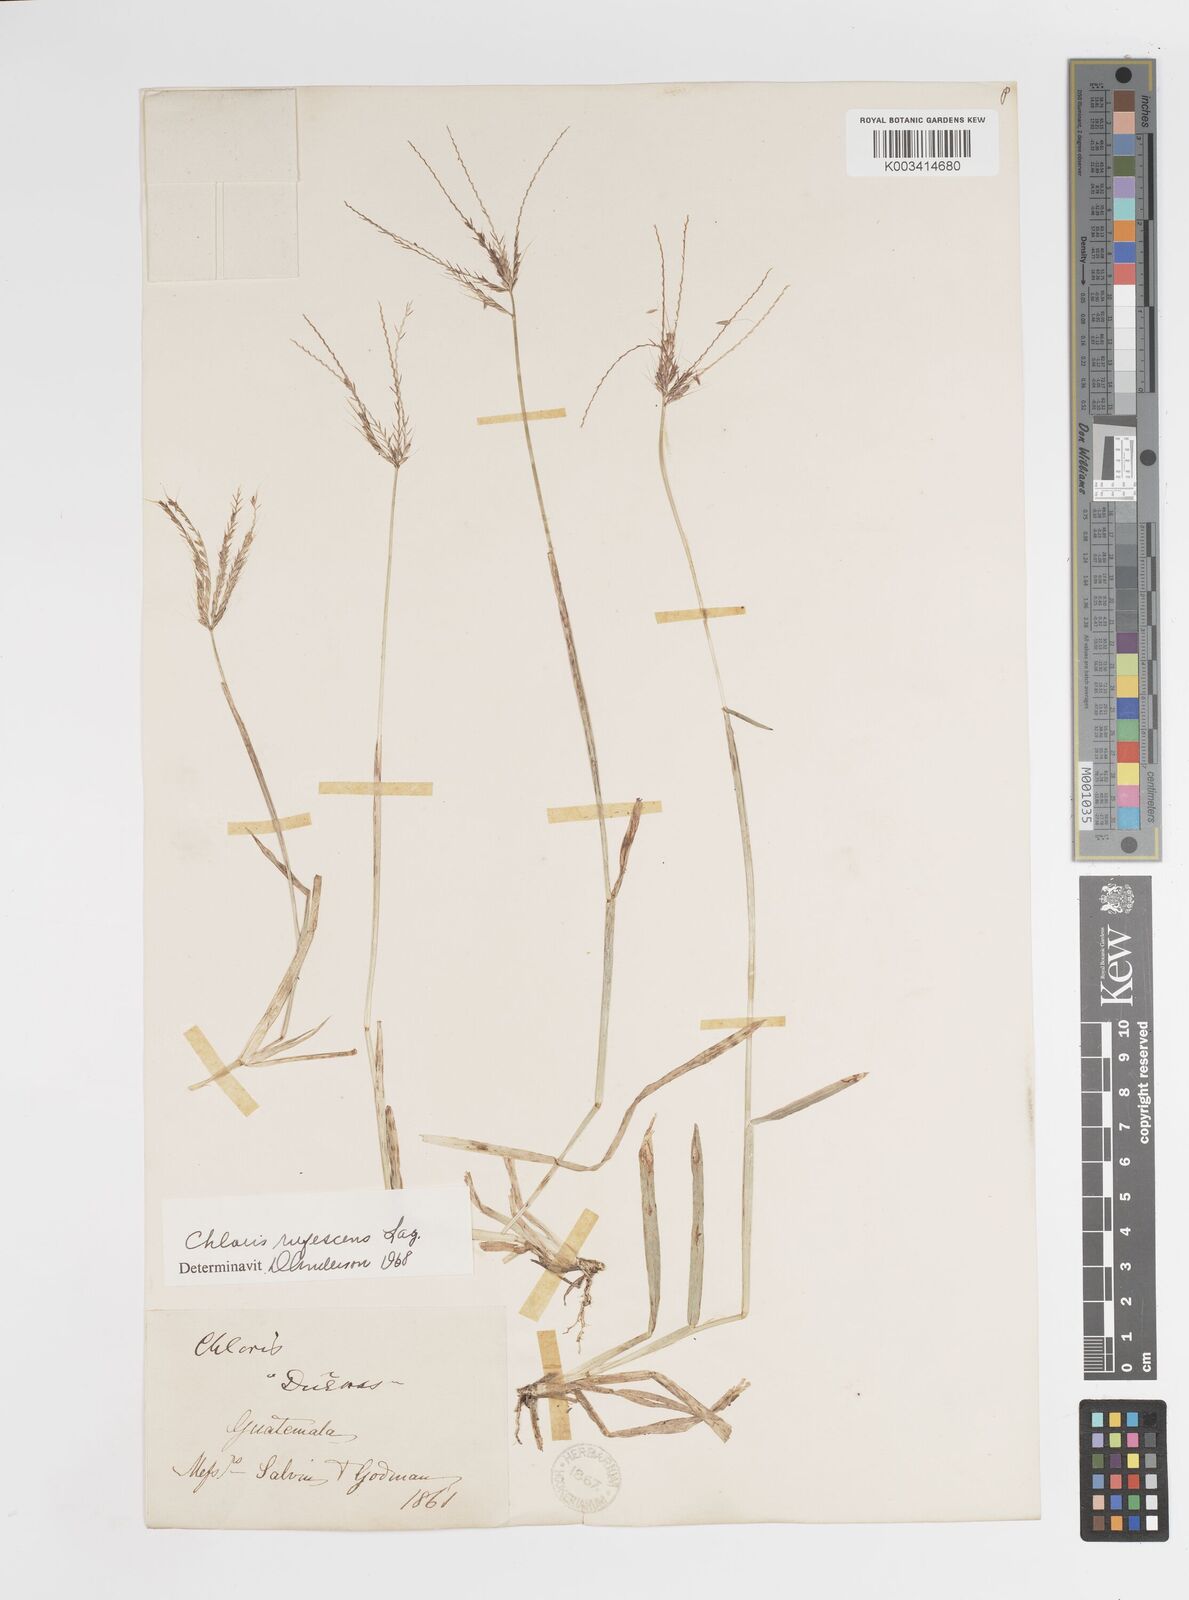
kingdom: Plantae
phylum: Tracheophyta
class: Liliopsida
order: Poales
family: Poaceae
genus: Chloris
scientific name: Chloris rufescens
